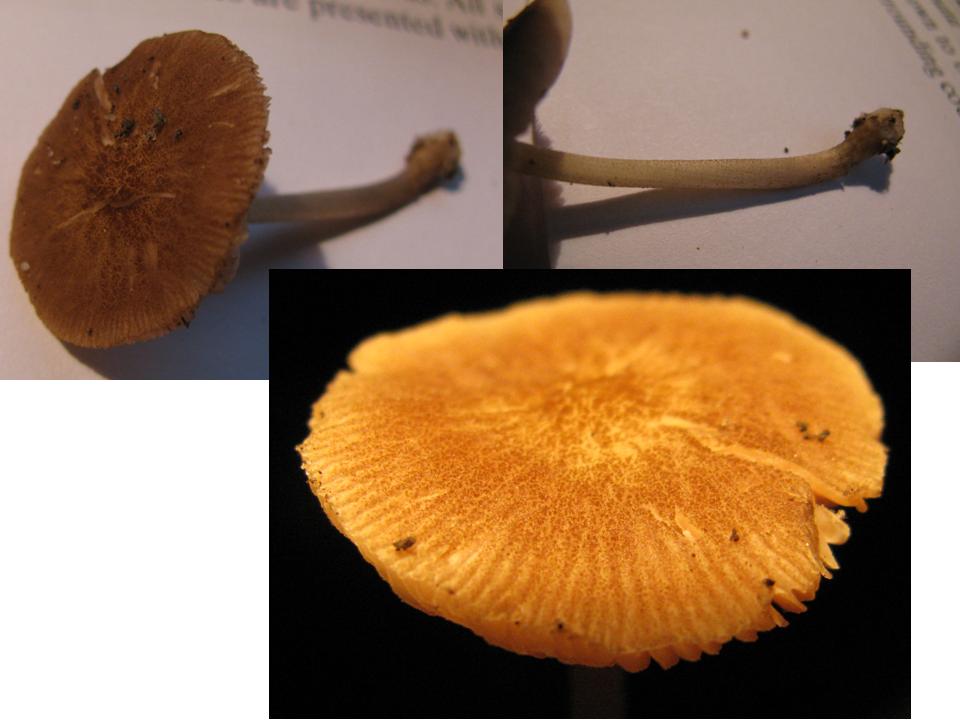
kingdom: Fungi
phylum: Basidiomycota
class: Agaricomycetes
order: Agaricales
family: Pluteaceae
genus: Pluteus
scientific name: Pluteus
